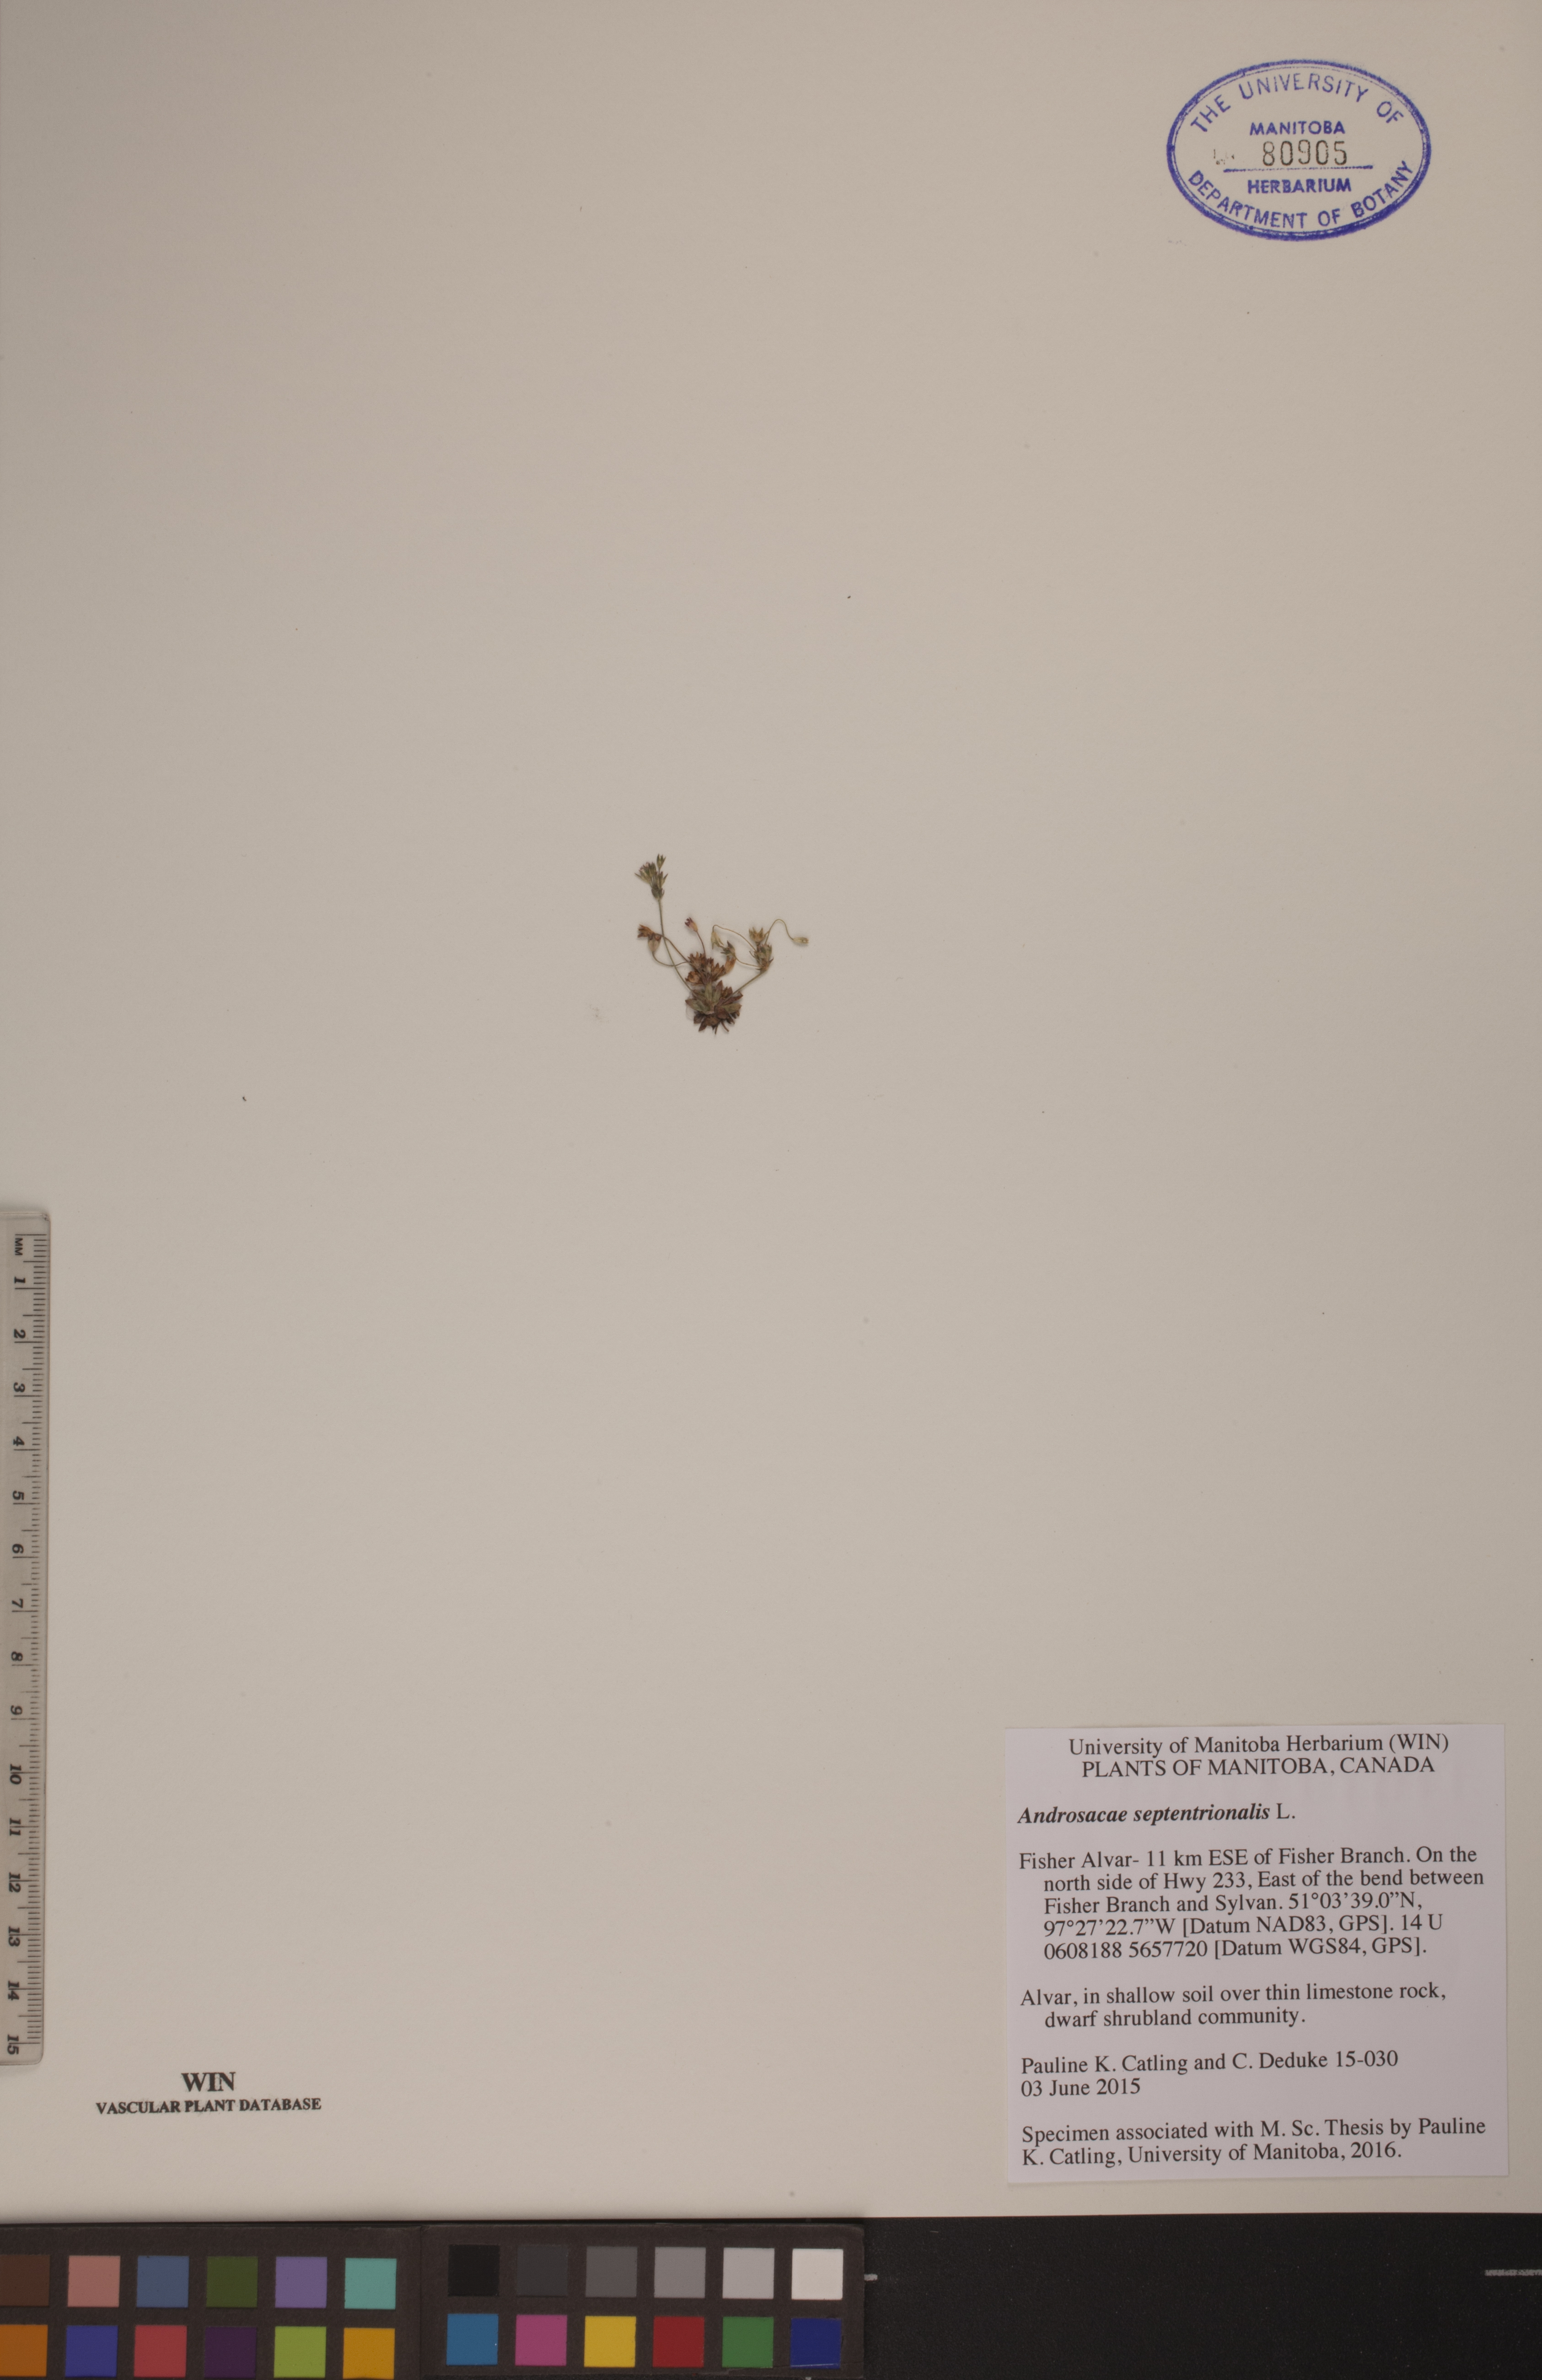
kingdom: Plantae
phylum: Tracheophyta
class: Magnoliopsida
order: Ericales
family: Primulaceae
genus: Androsace
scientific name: Androsace septentrionalis
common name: Hairy northern fairy-candelabra
